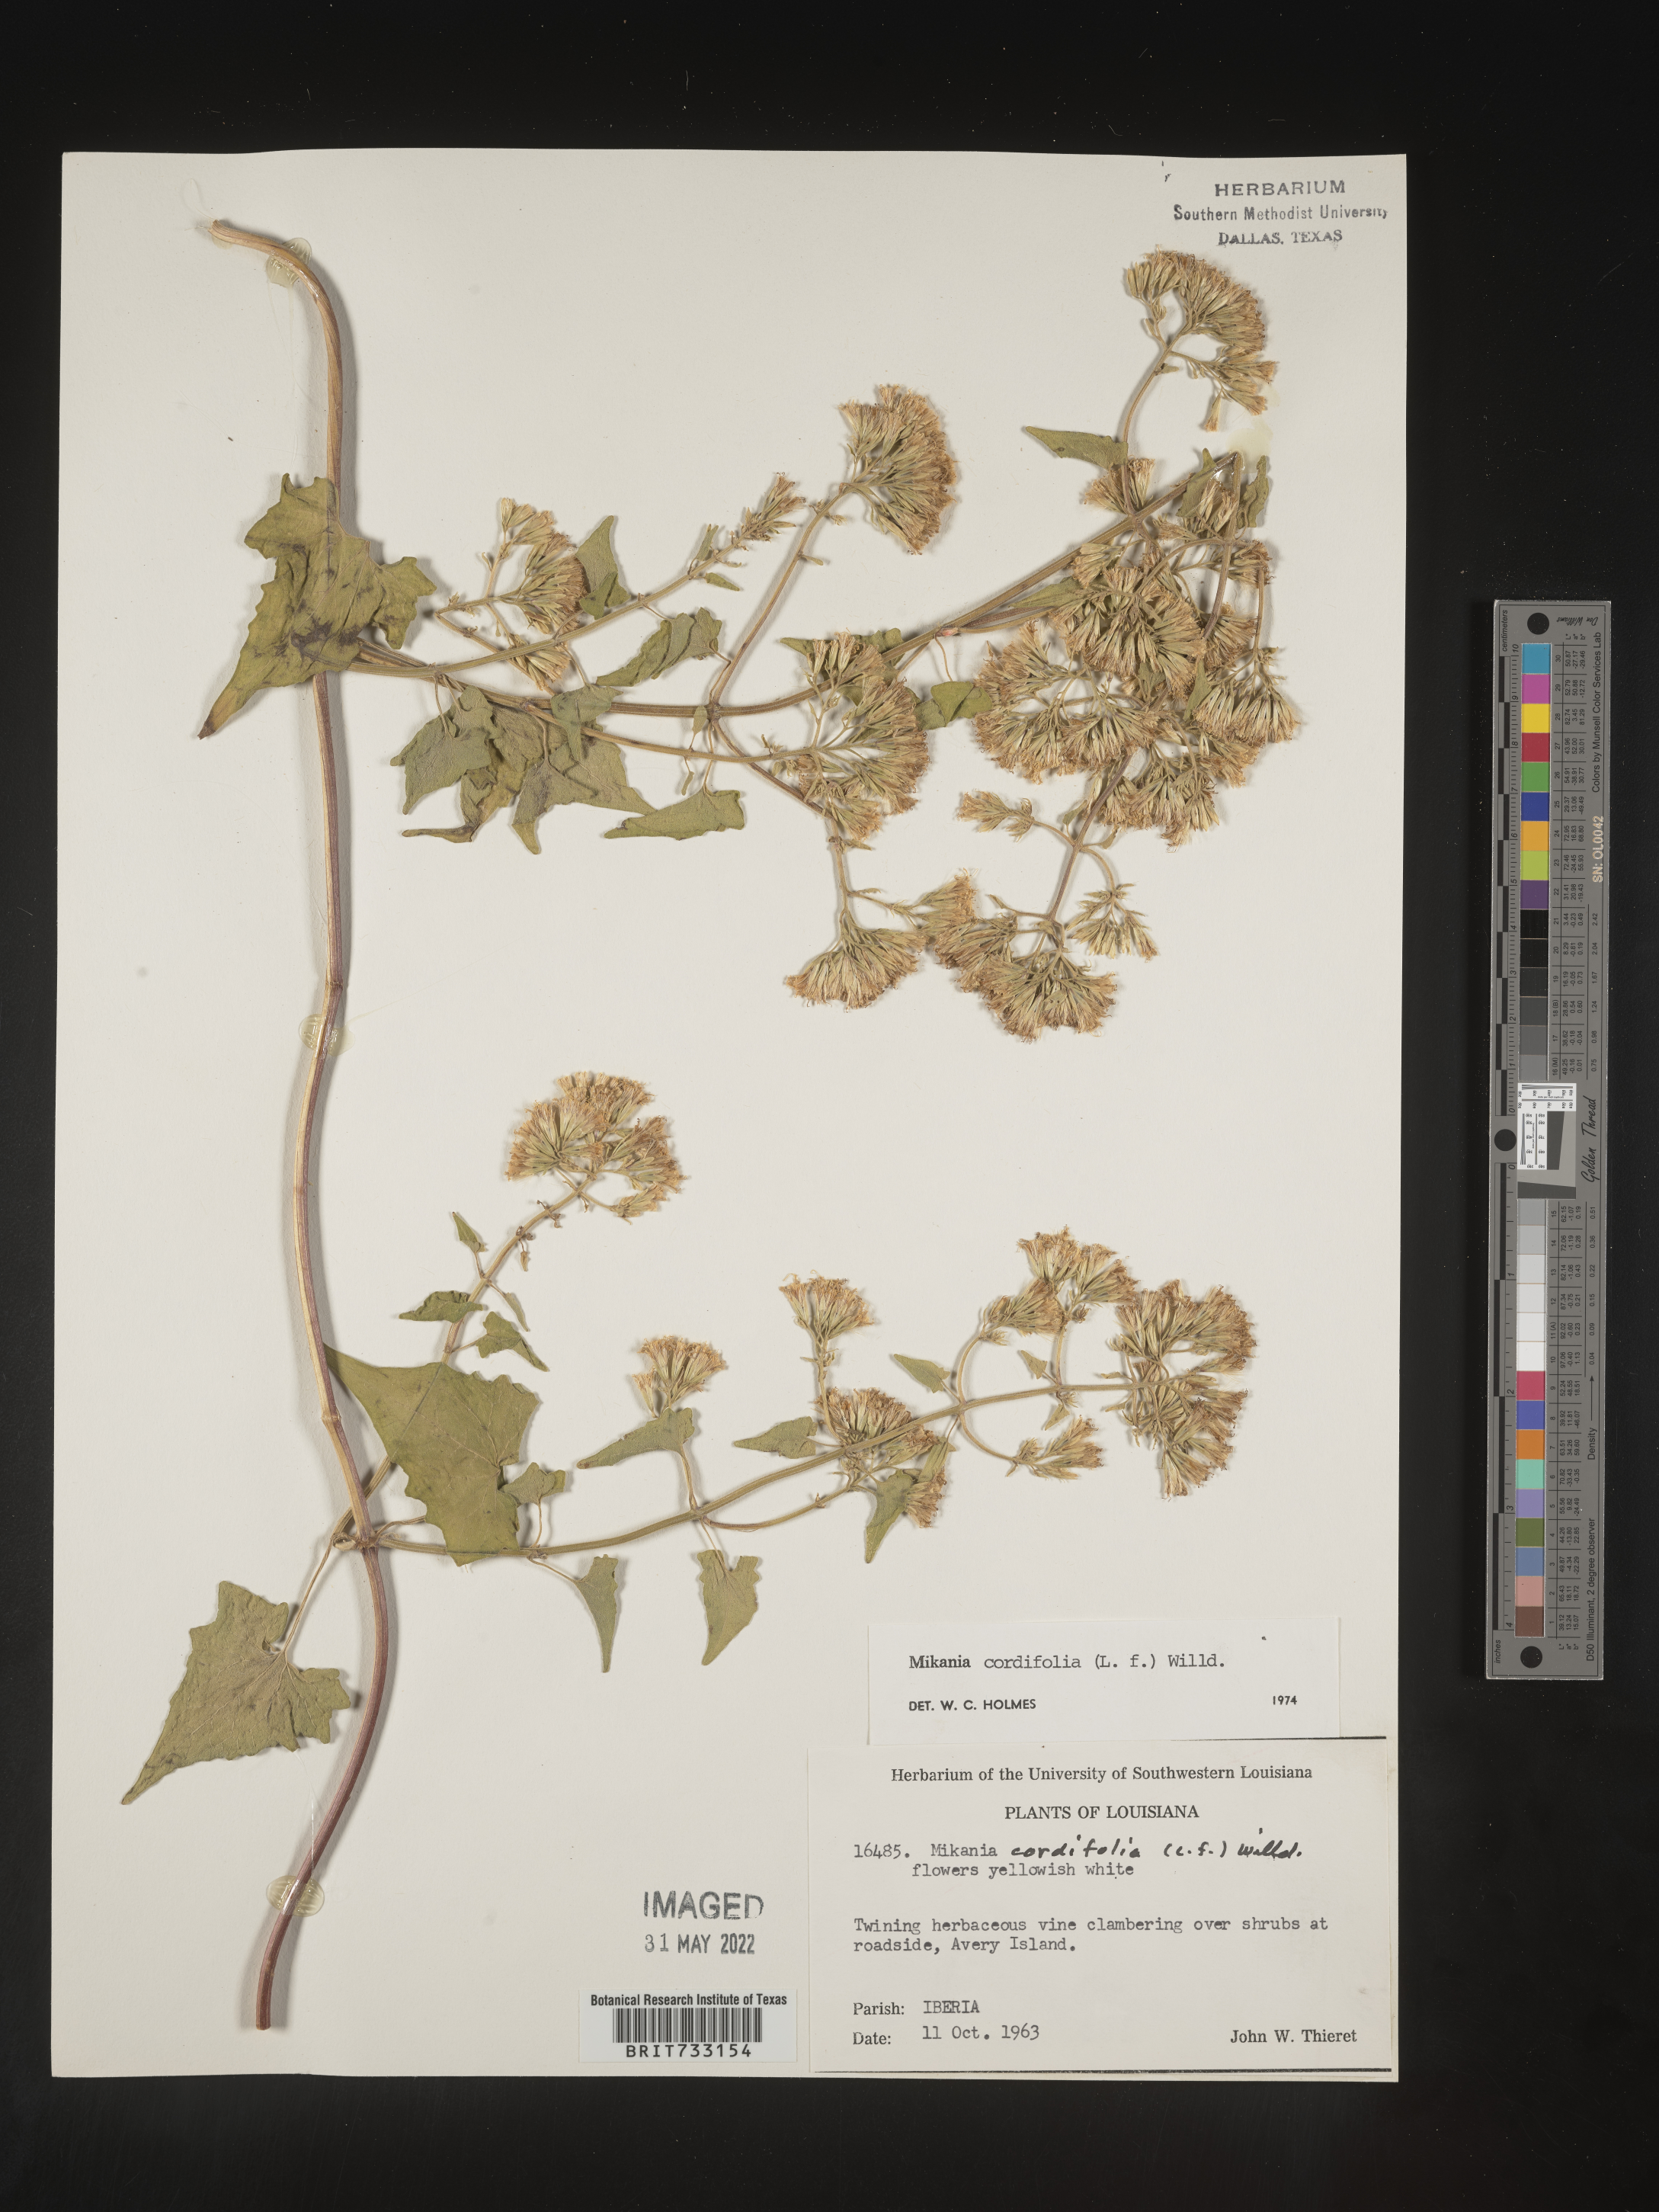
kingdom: Plantae
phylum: Tracheophyta
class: Magnoliopsida
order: Asterales
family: Asteraceae
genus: Mikania
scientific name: Mikania
